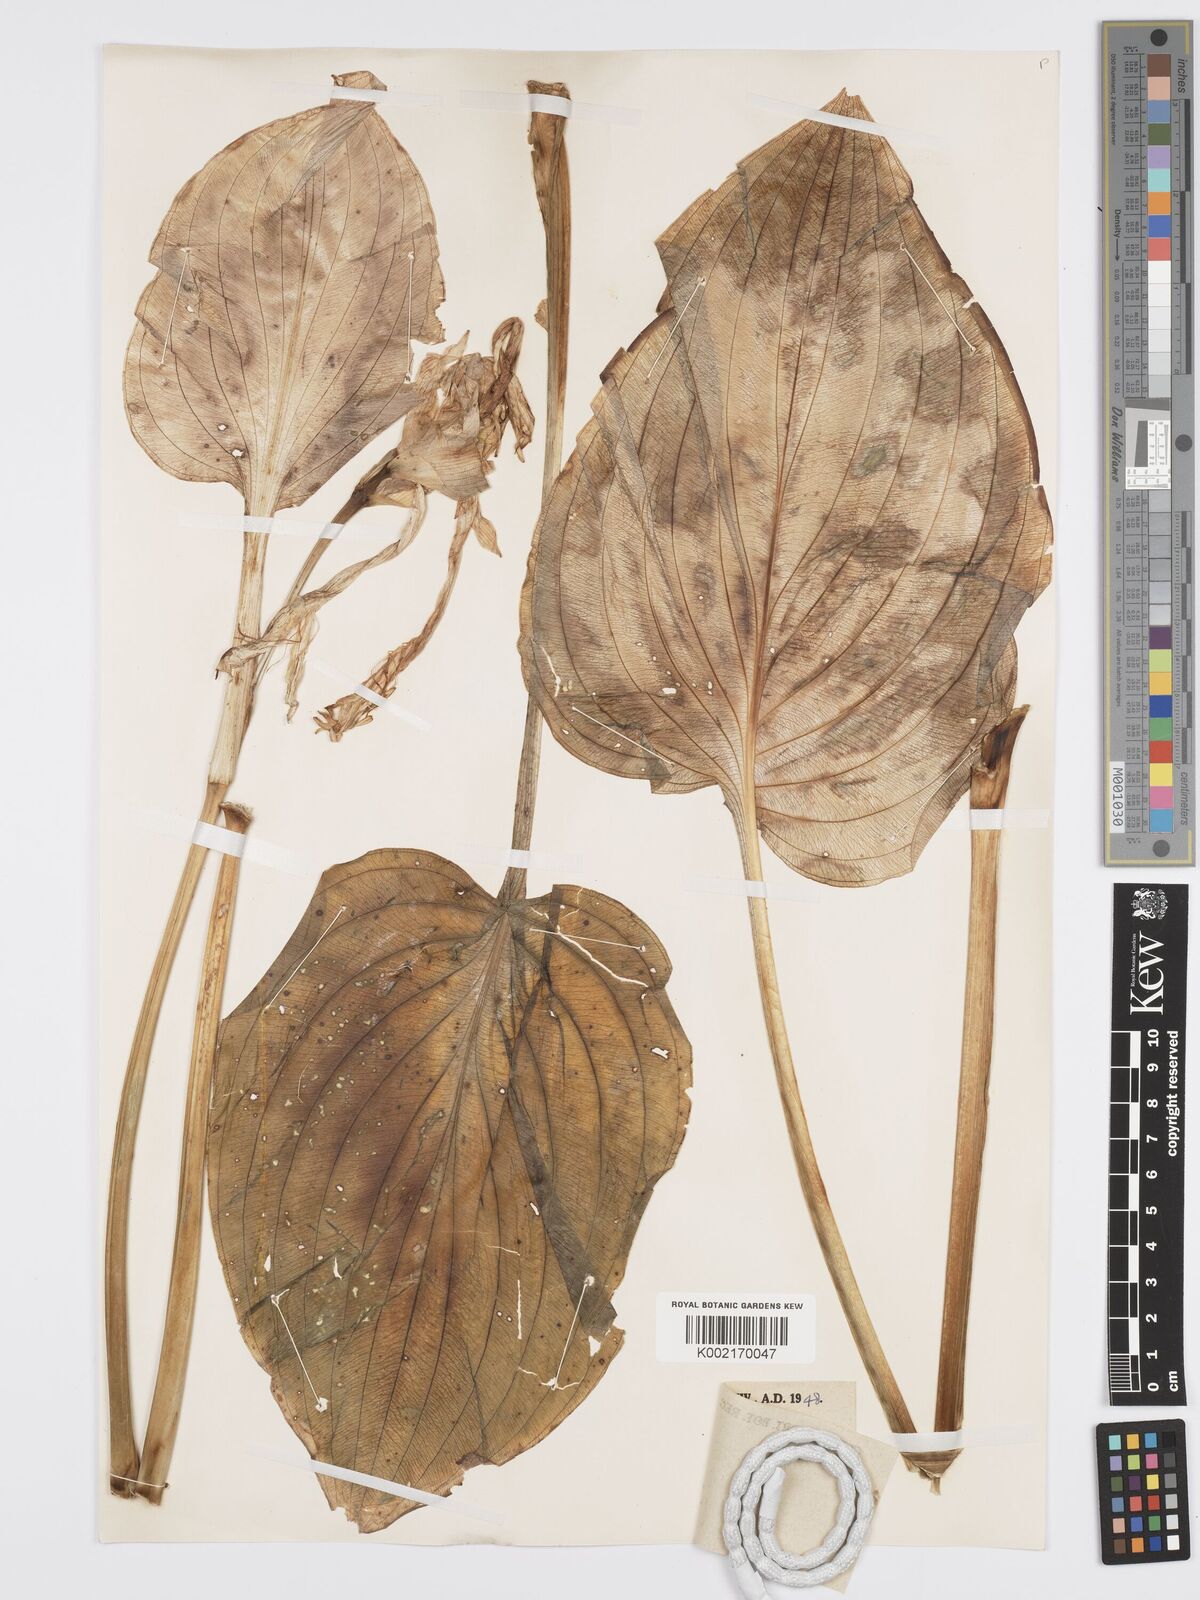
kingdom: Plantae
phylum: Tracheophyta
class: Liliopsida
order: Asparagales
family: Asparagaceae
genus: Hosta
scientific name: Hosta plantaginea
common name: August-lily
